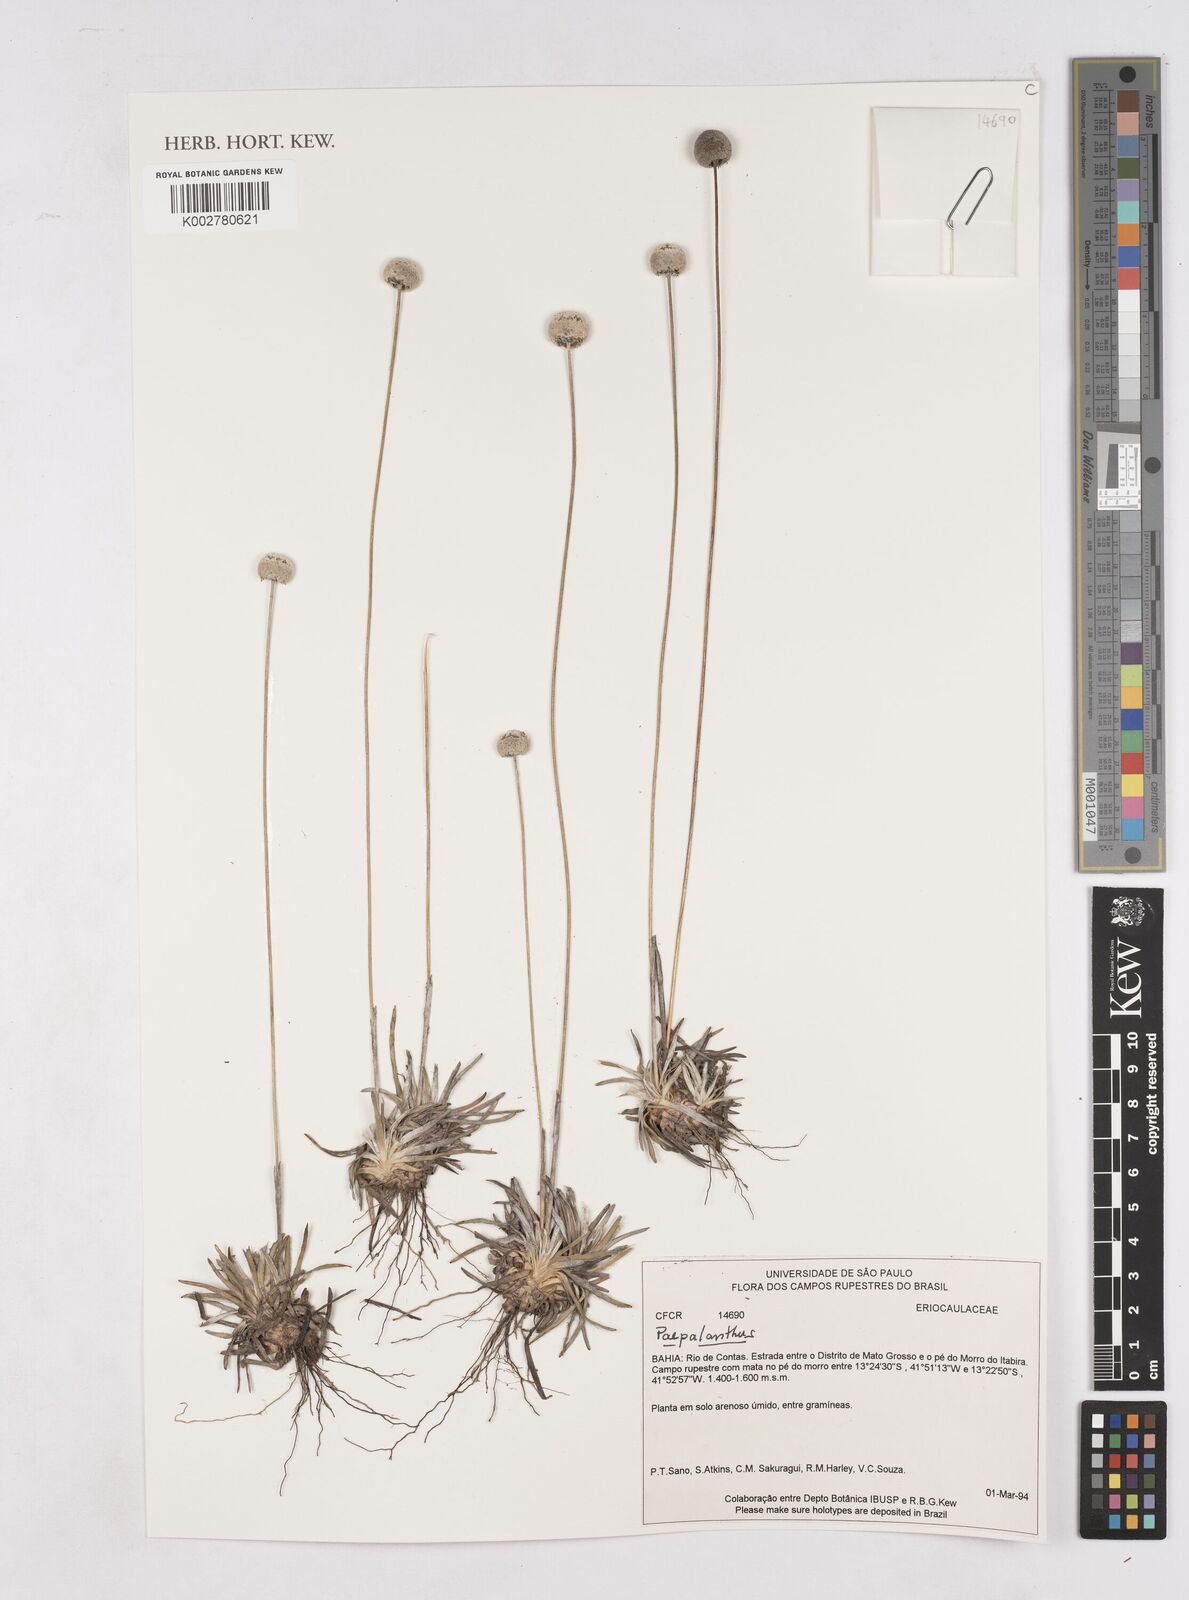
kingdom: Plantae
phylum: Tracheophyta
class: Liliopsida
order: Poales
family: Eriocaulaceae
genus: Paepalanthus
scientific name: Paepalanthus
